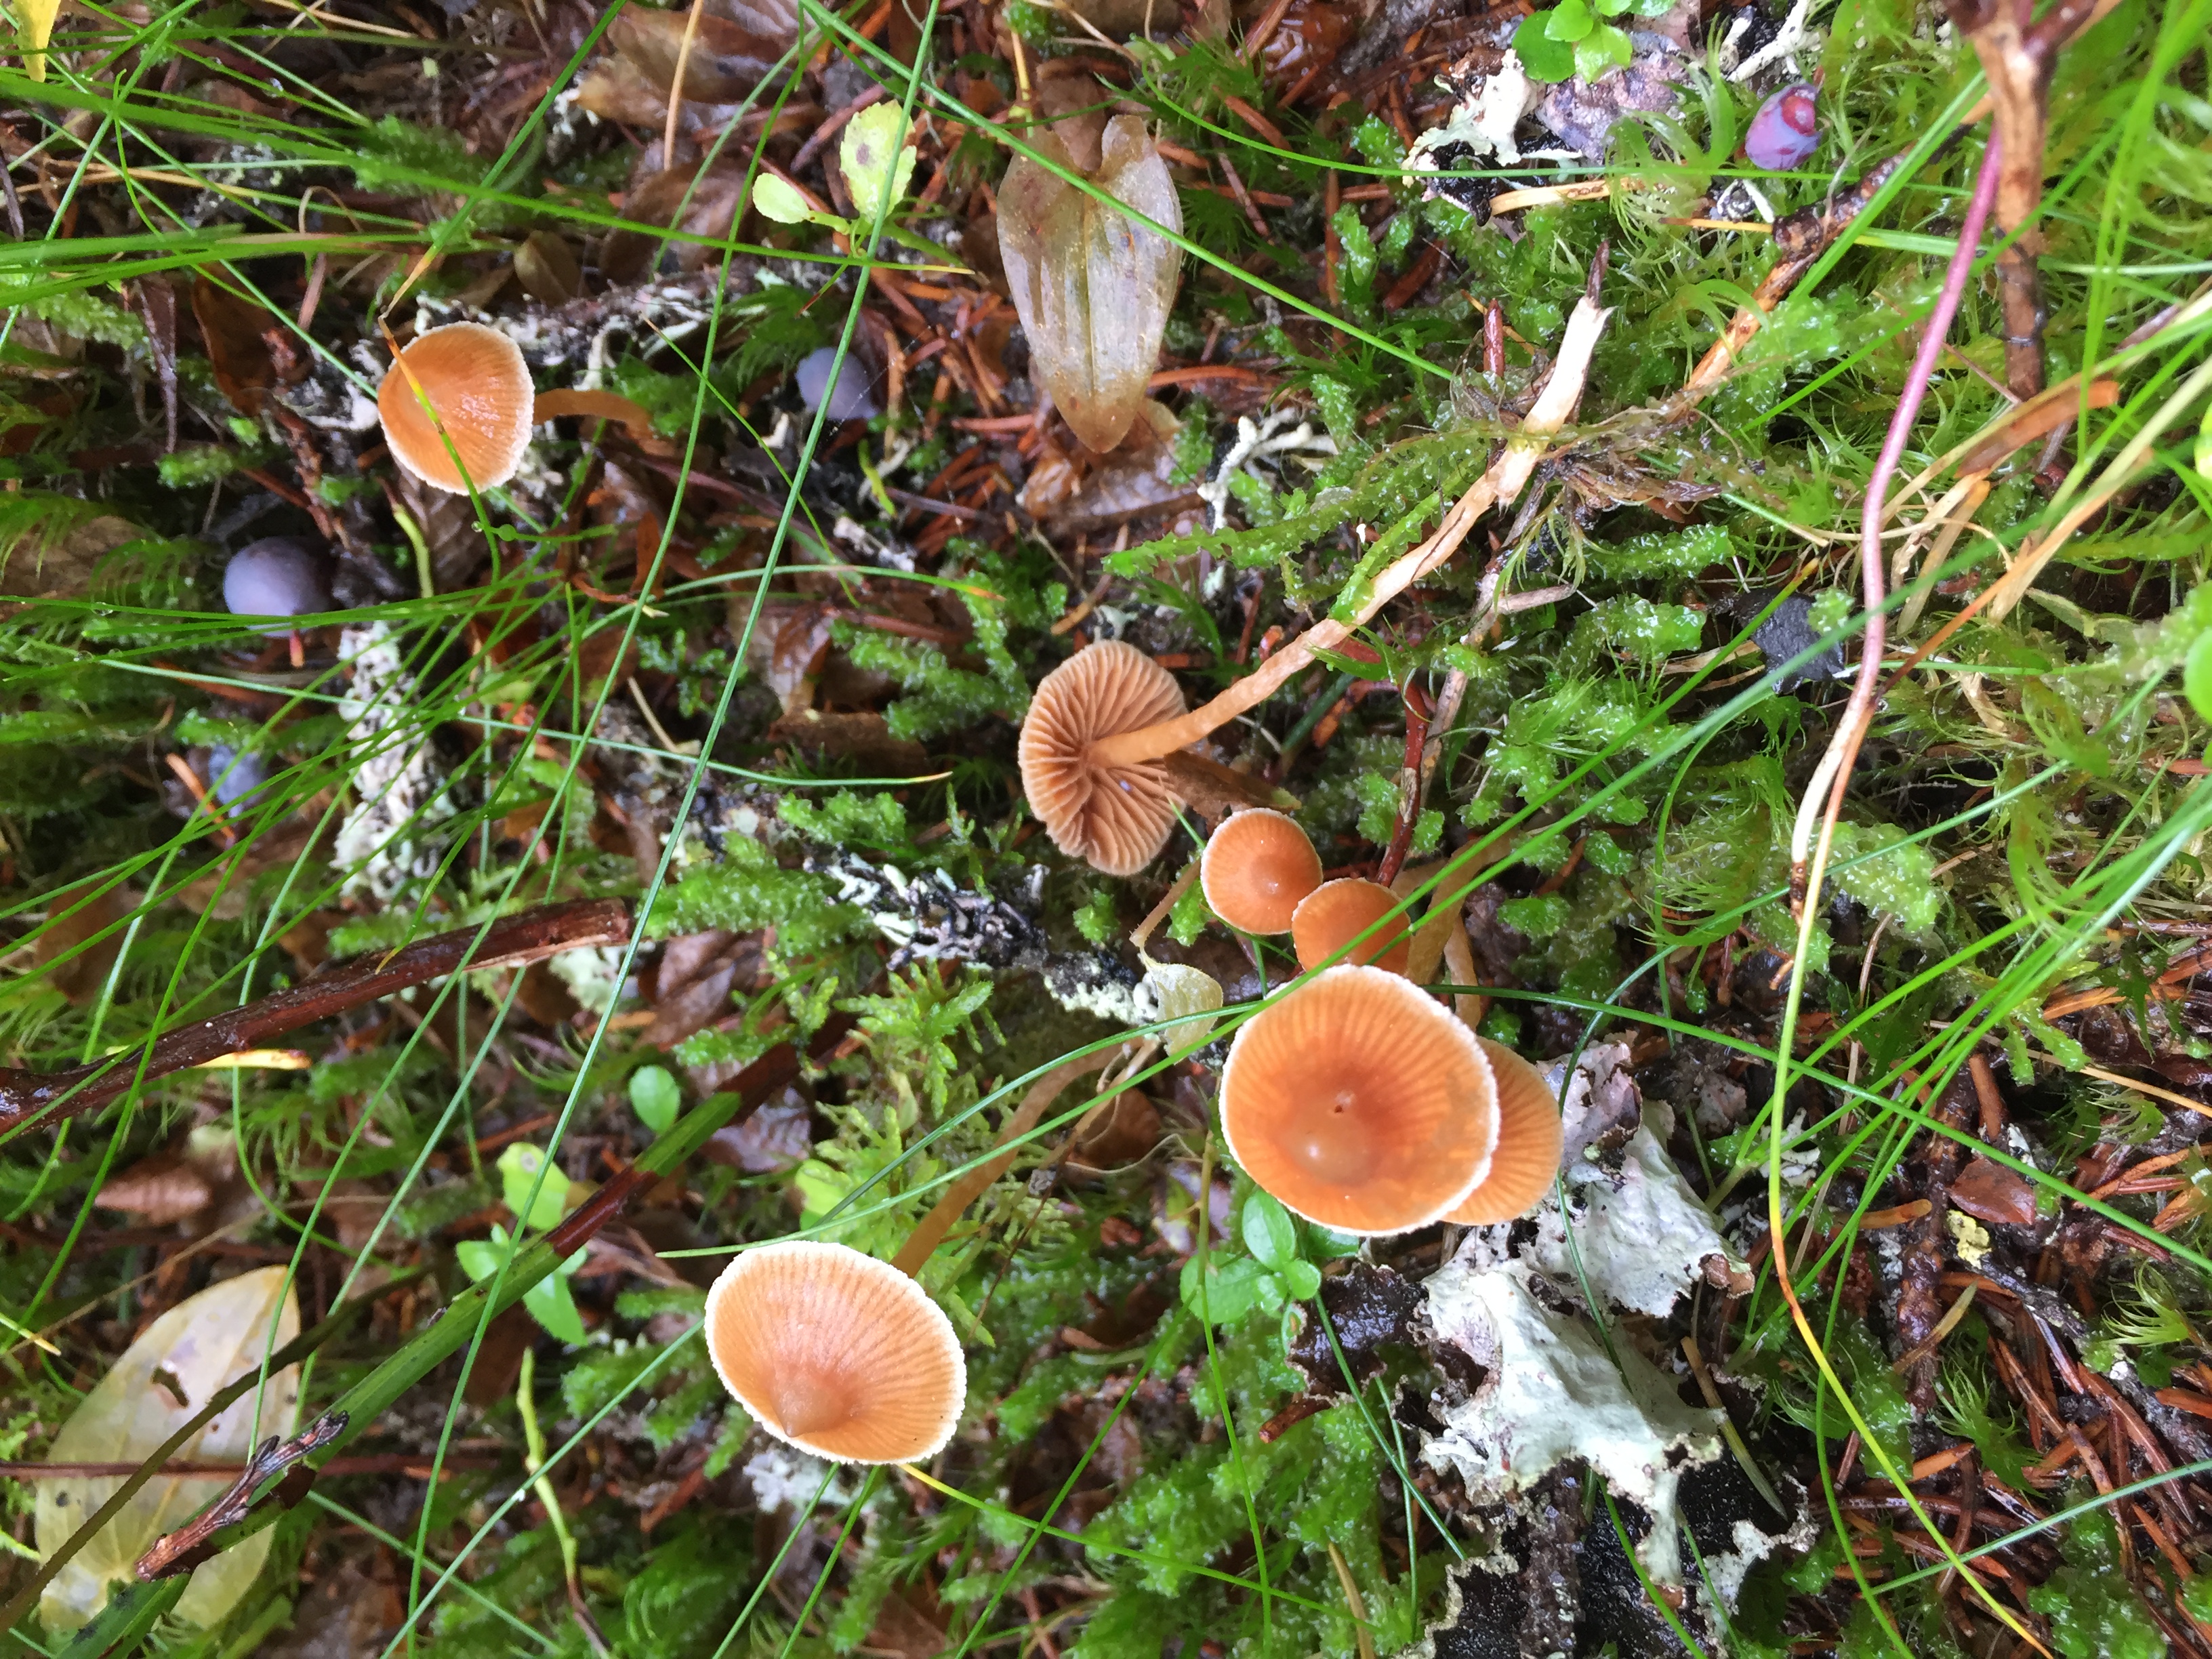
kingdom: Fungi
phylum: Basidiomycota
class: Agaricomycetes
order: Agaricales
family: Cortinariaceae
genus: Cortinarius
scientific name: Cortinarius acutus
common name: Peaked webcap
